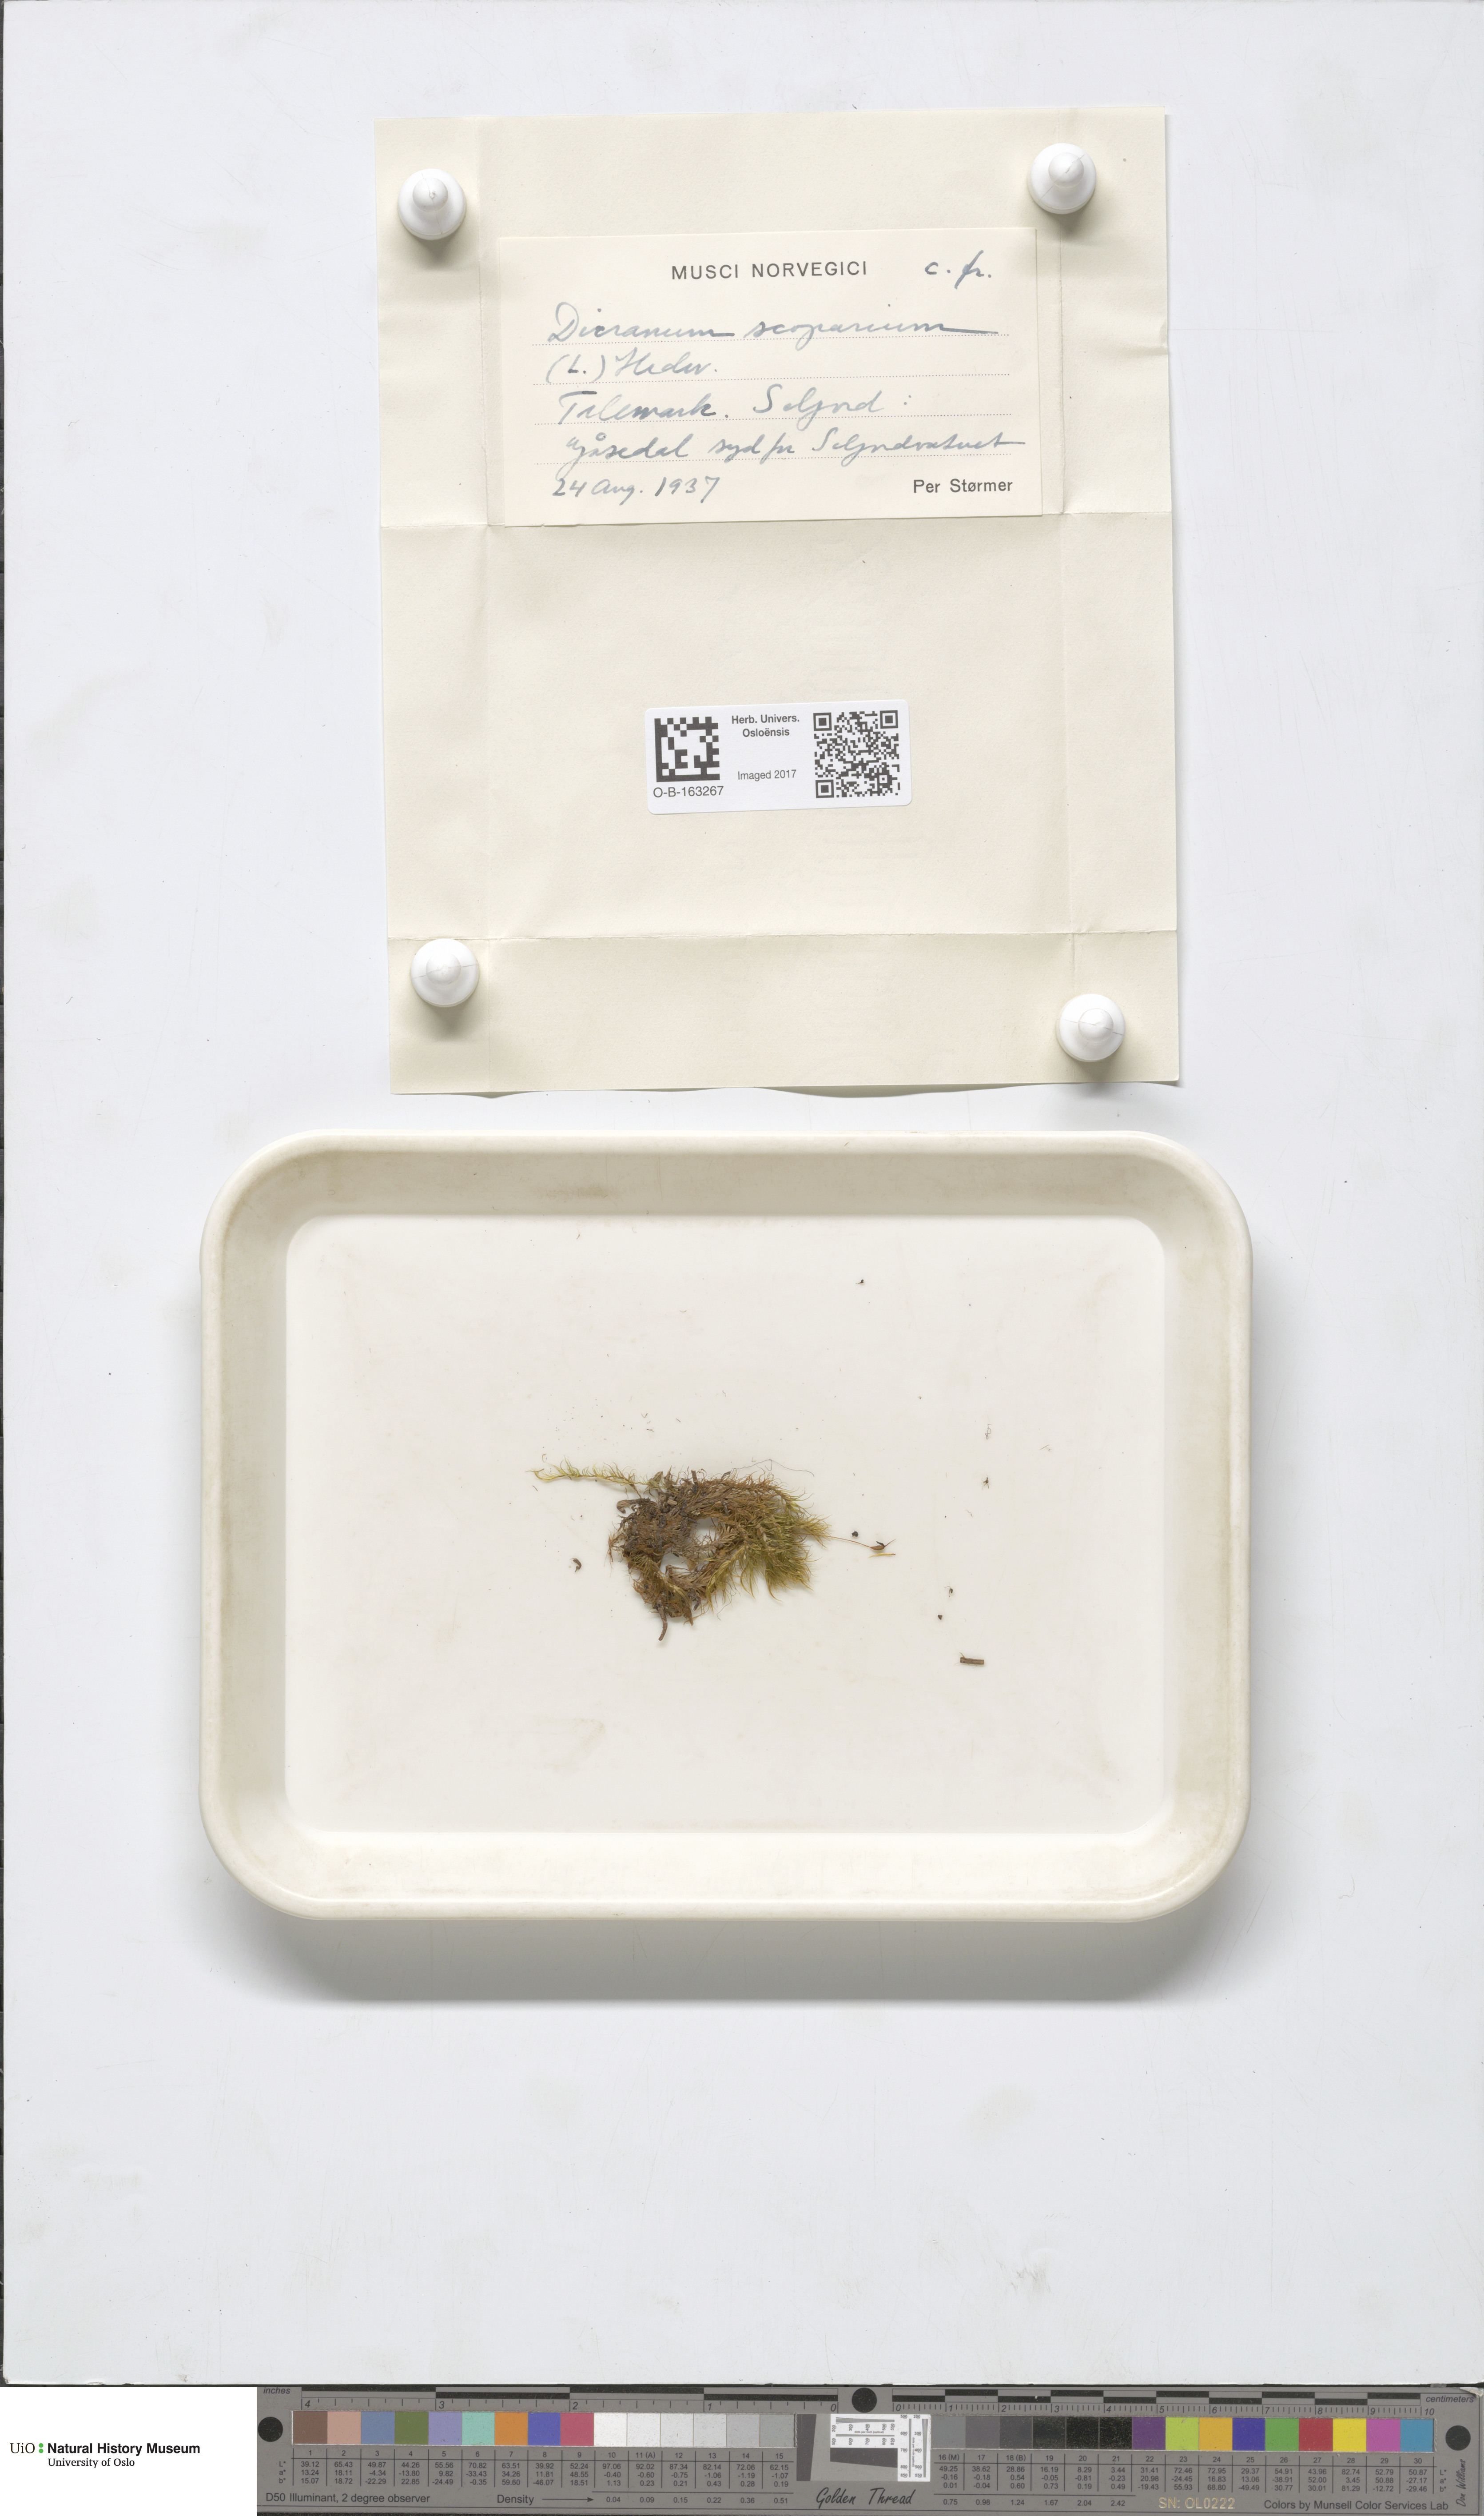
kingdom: Plantae
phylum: Bryophyta
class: Bryopsida
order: Dicranales
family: Dicranaceae
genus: Dicranum
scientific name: Dicranum scoparium
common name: Broom fork-moss
